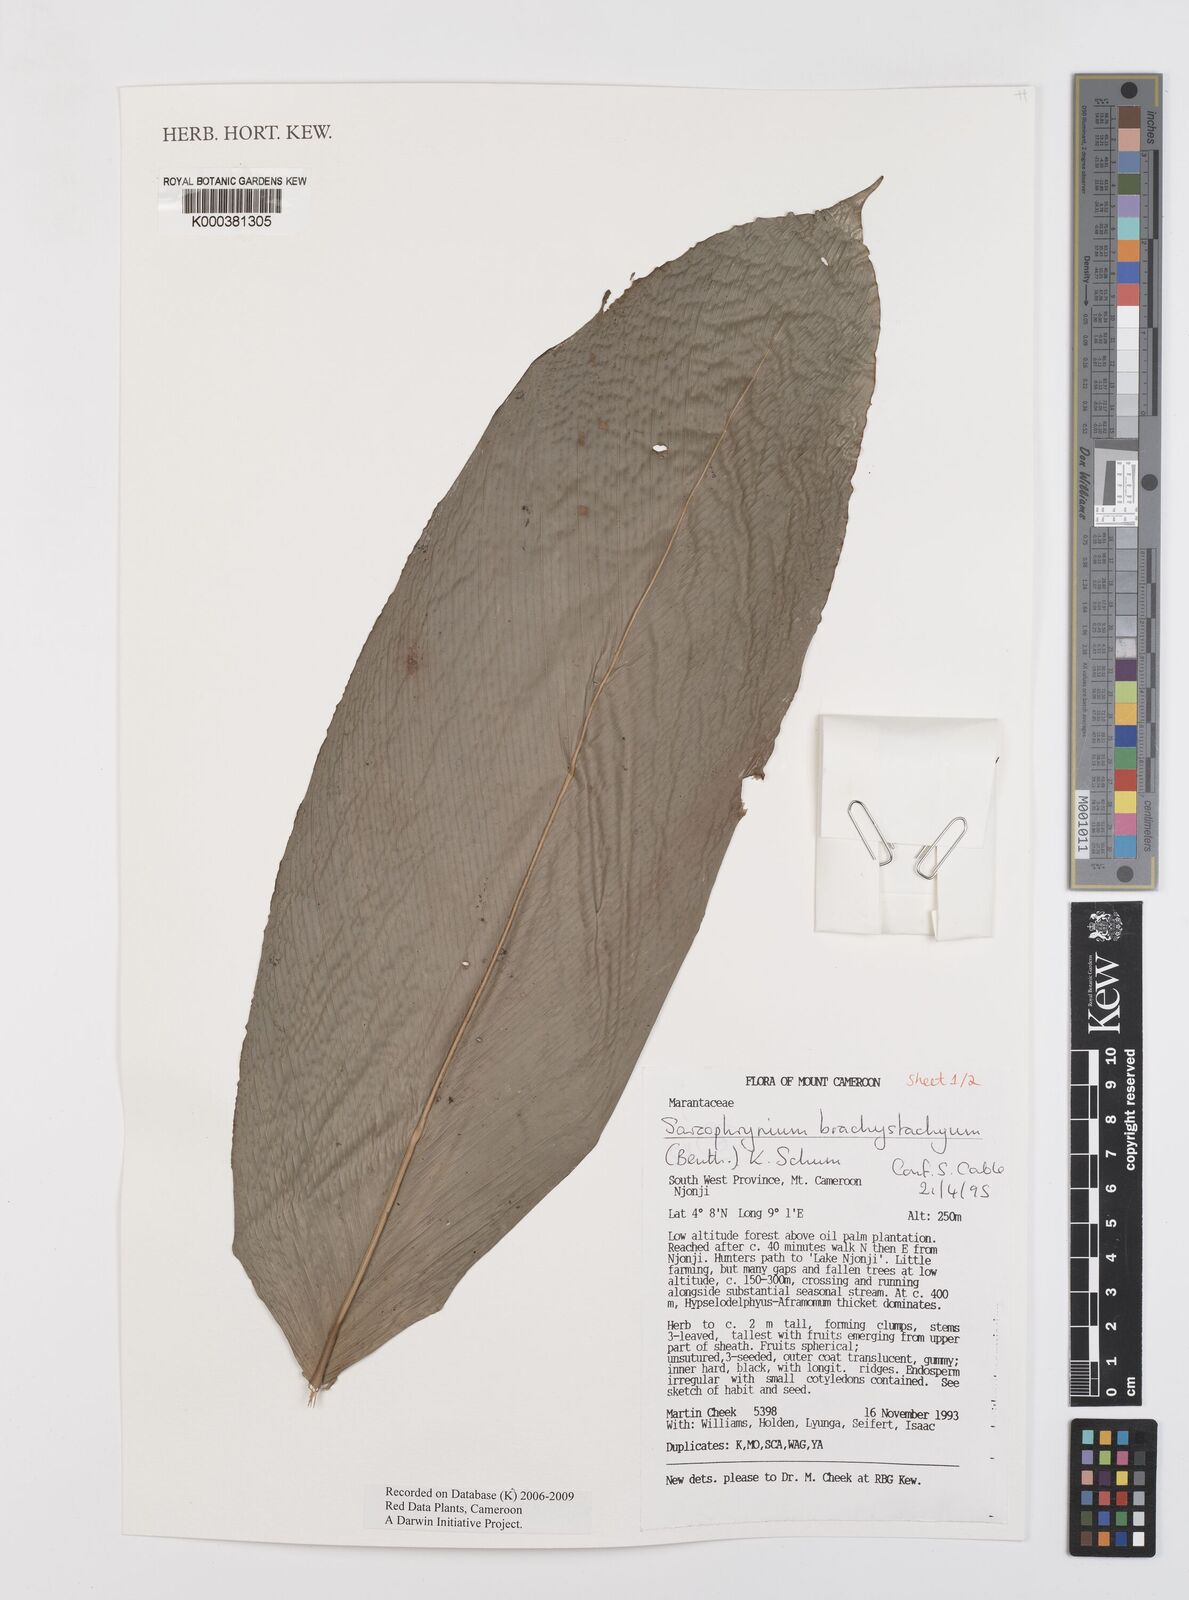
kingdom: Plantae
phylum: Tracheophyta
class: Liliopsida
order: Zingiberales
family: Marantaceae
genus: Sarcophrynium
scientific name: Sarcophrynium
